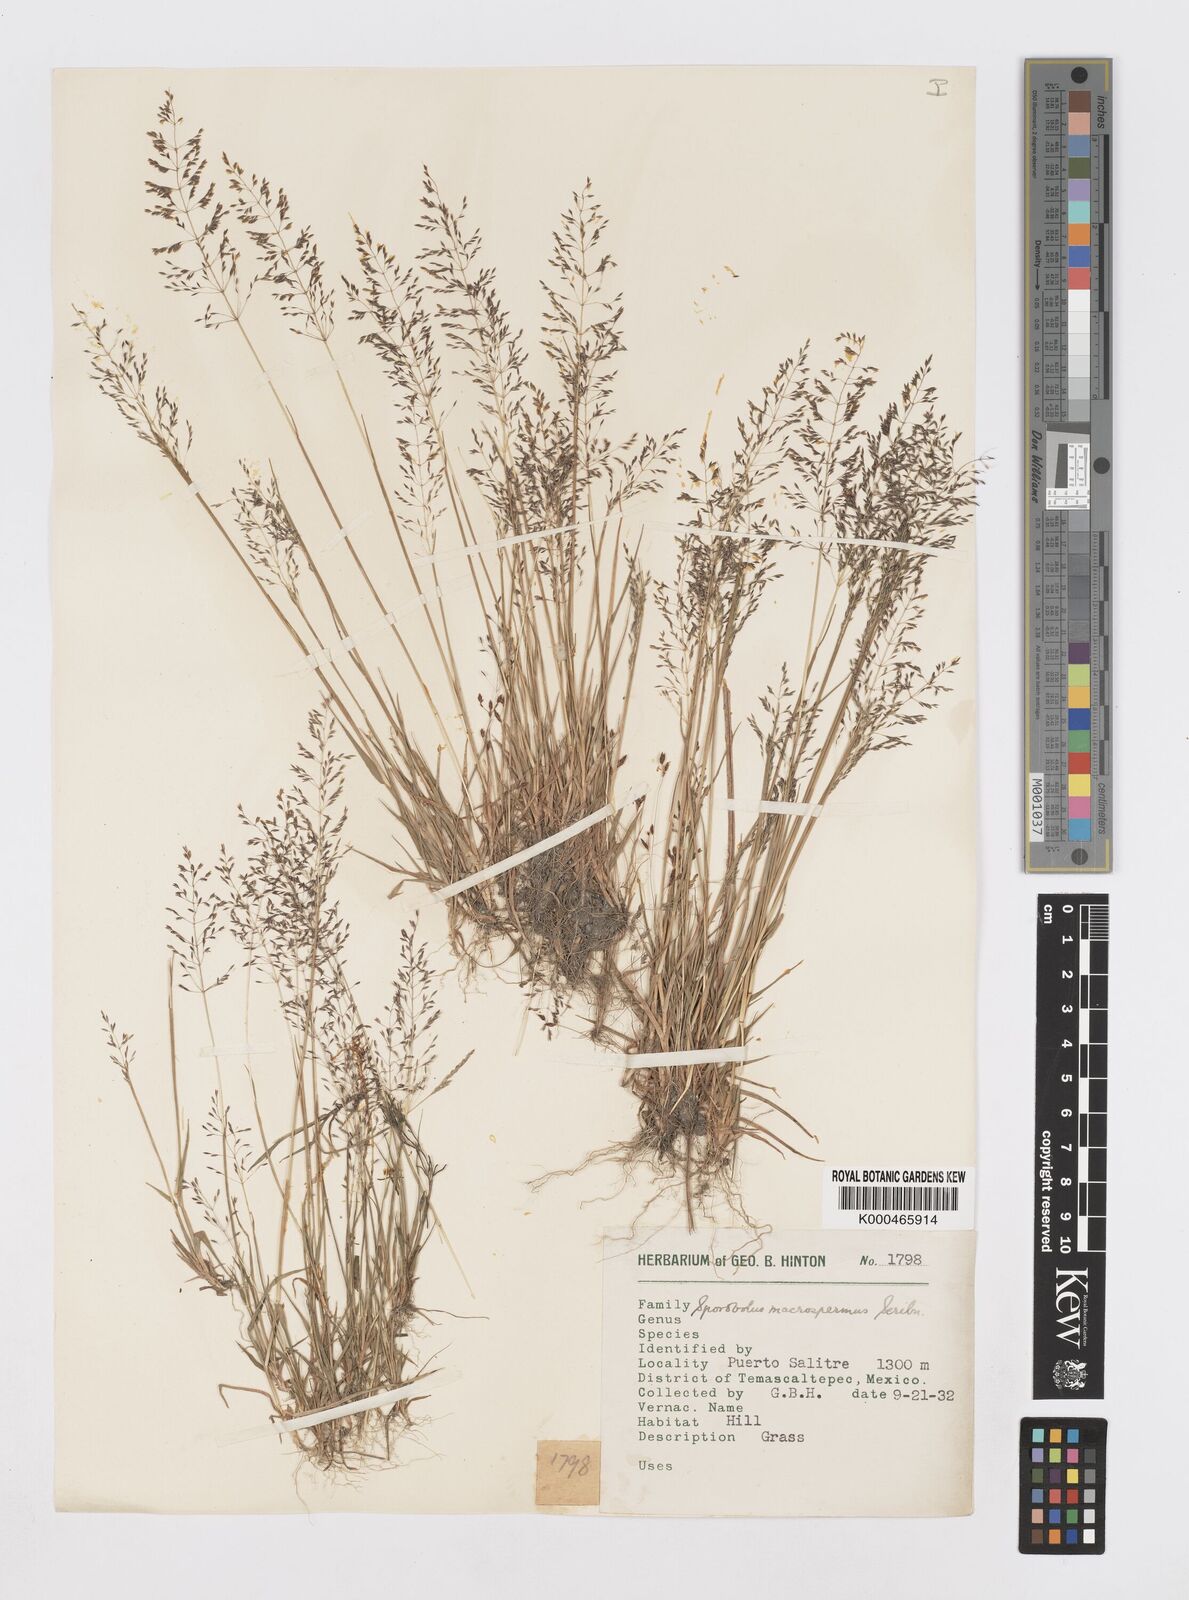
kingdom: Plantae
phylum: Tracheophyta
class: Liliopsida
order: Poales
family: Poaceae
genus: Sporobolus
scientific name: Sporobolus paniculatus
